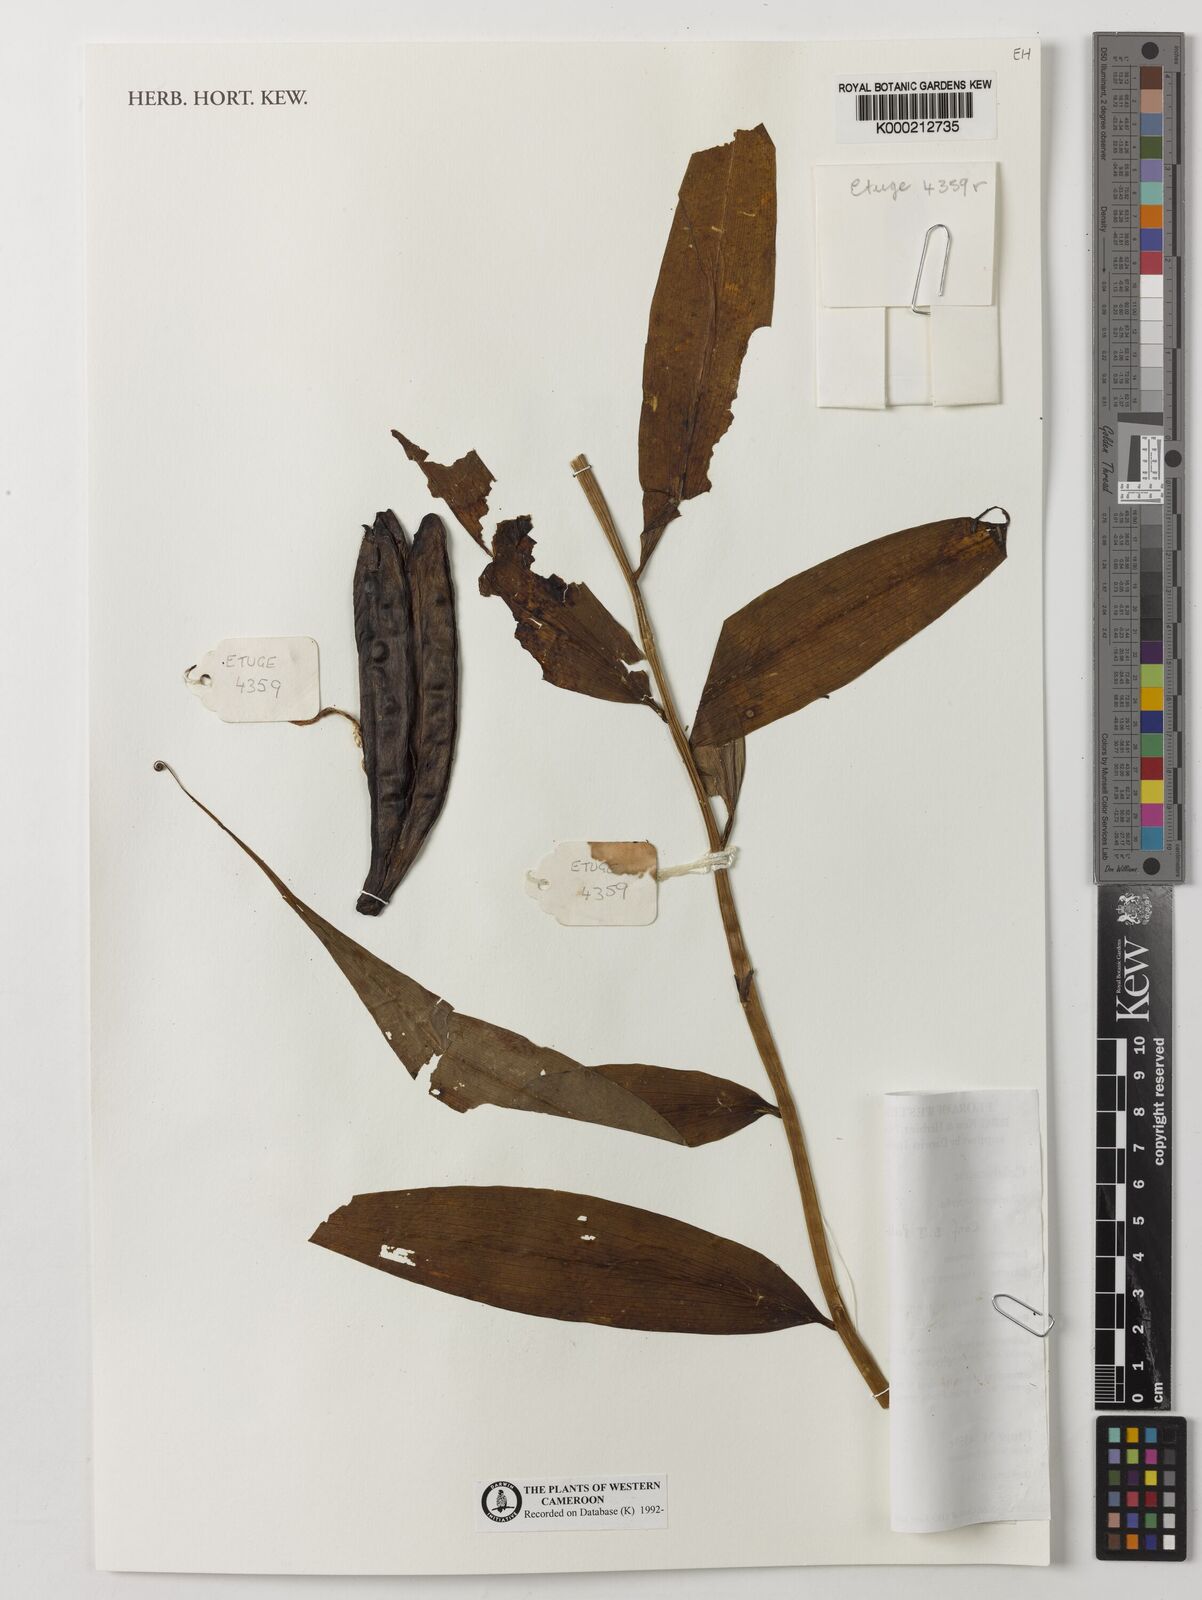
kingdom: Plantae
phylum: Tracheophyta
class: Liliopsida
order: Liliales
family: Colchicaceae
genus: Gloriosa
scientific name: Gloriosa superba
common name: Flame lily
